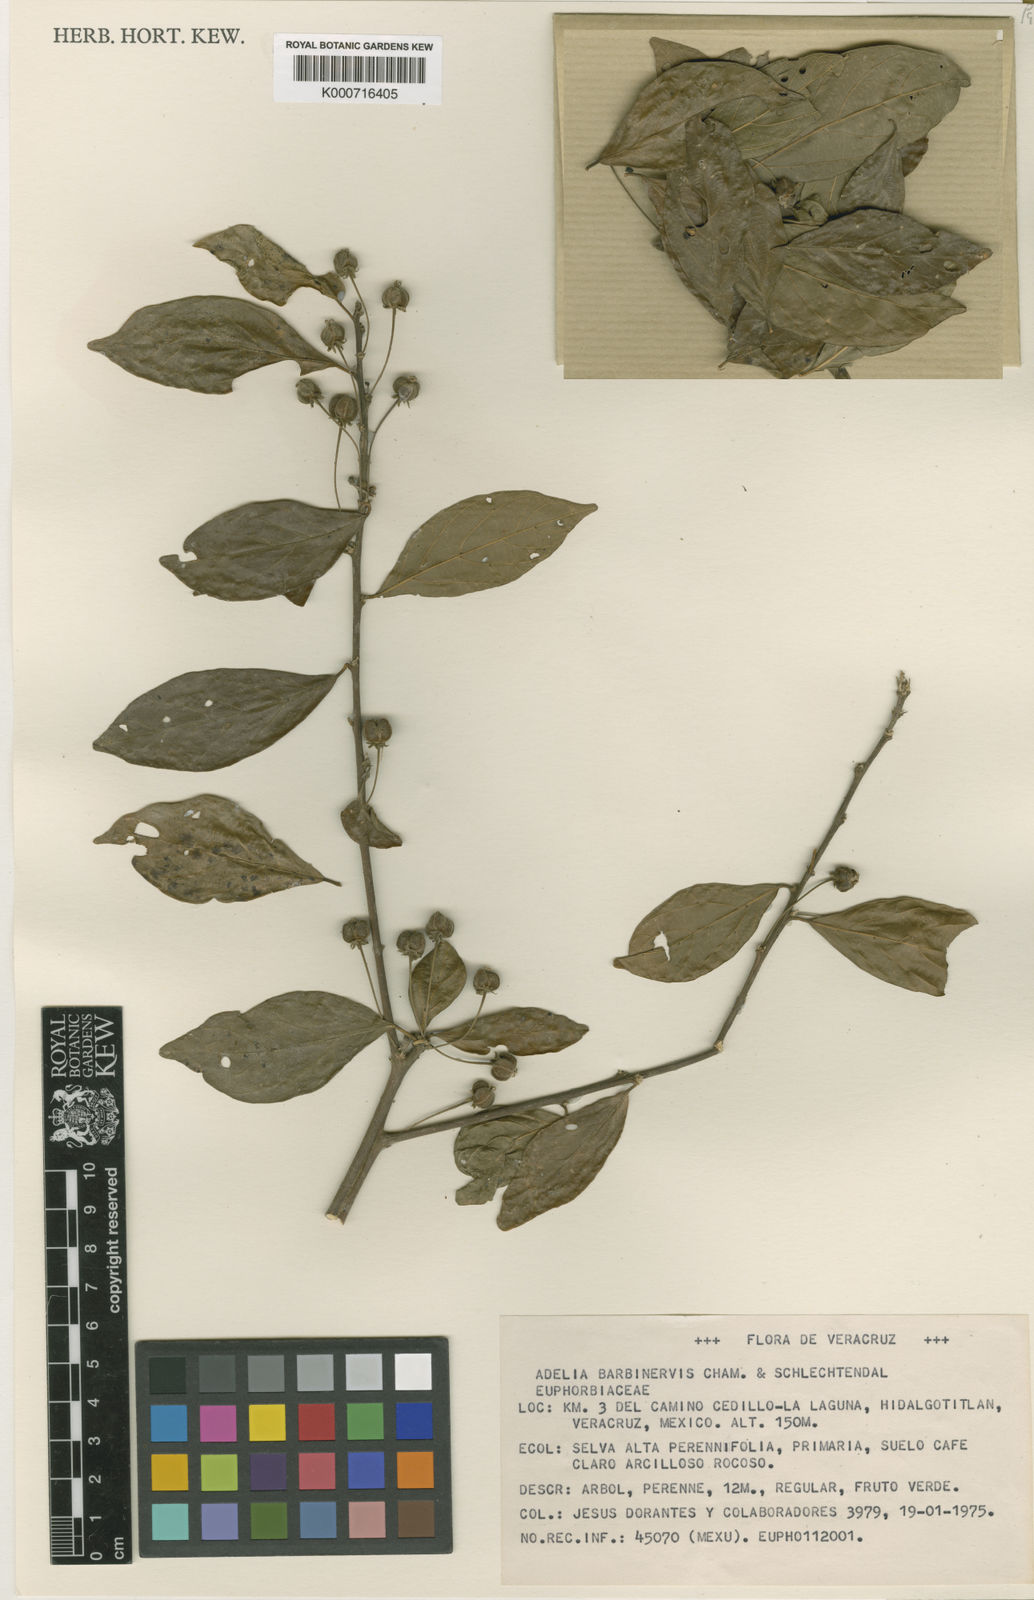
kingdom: Plantae
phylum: Tracheophyta
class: Magnoliopsida
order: Malpighiales
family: Euphorbiaceae
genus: Adelia
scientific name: Adelia barbinervis
